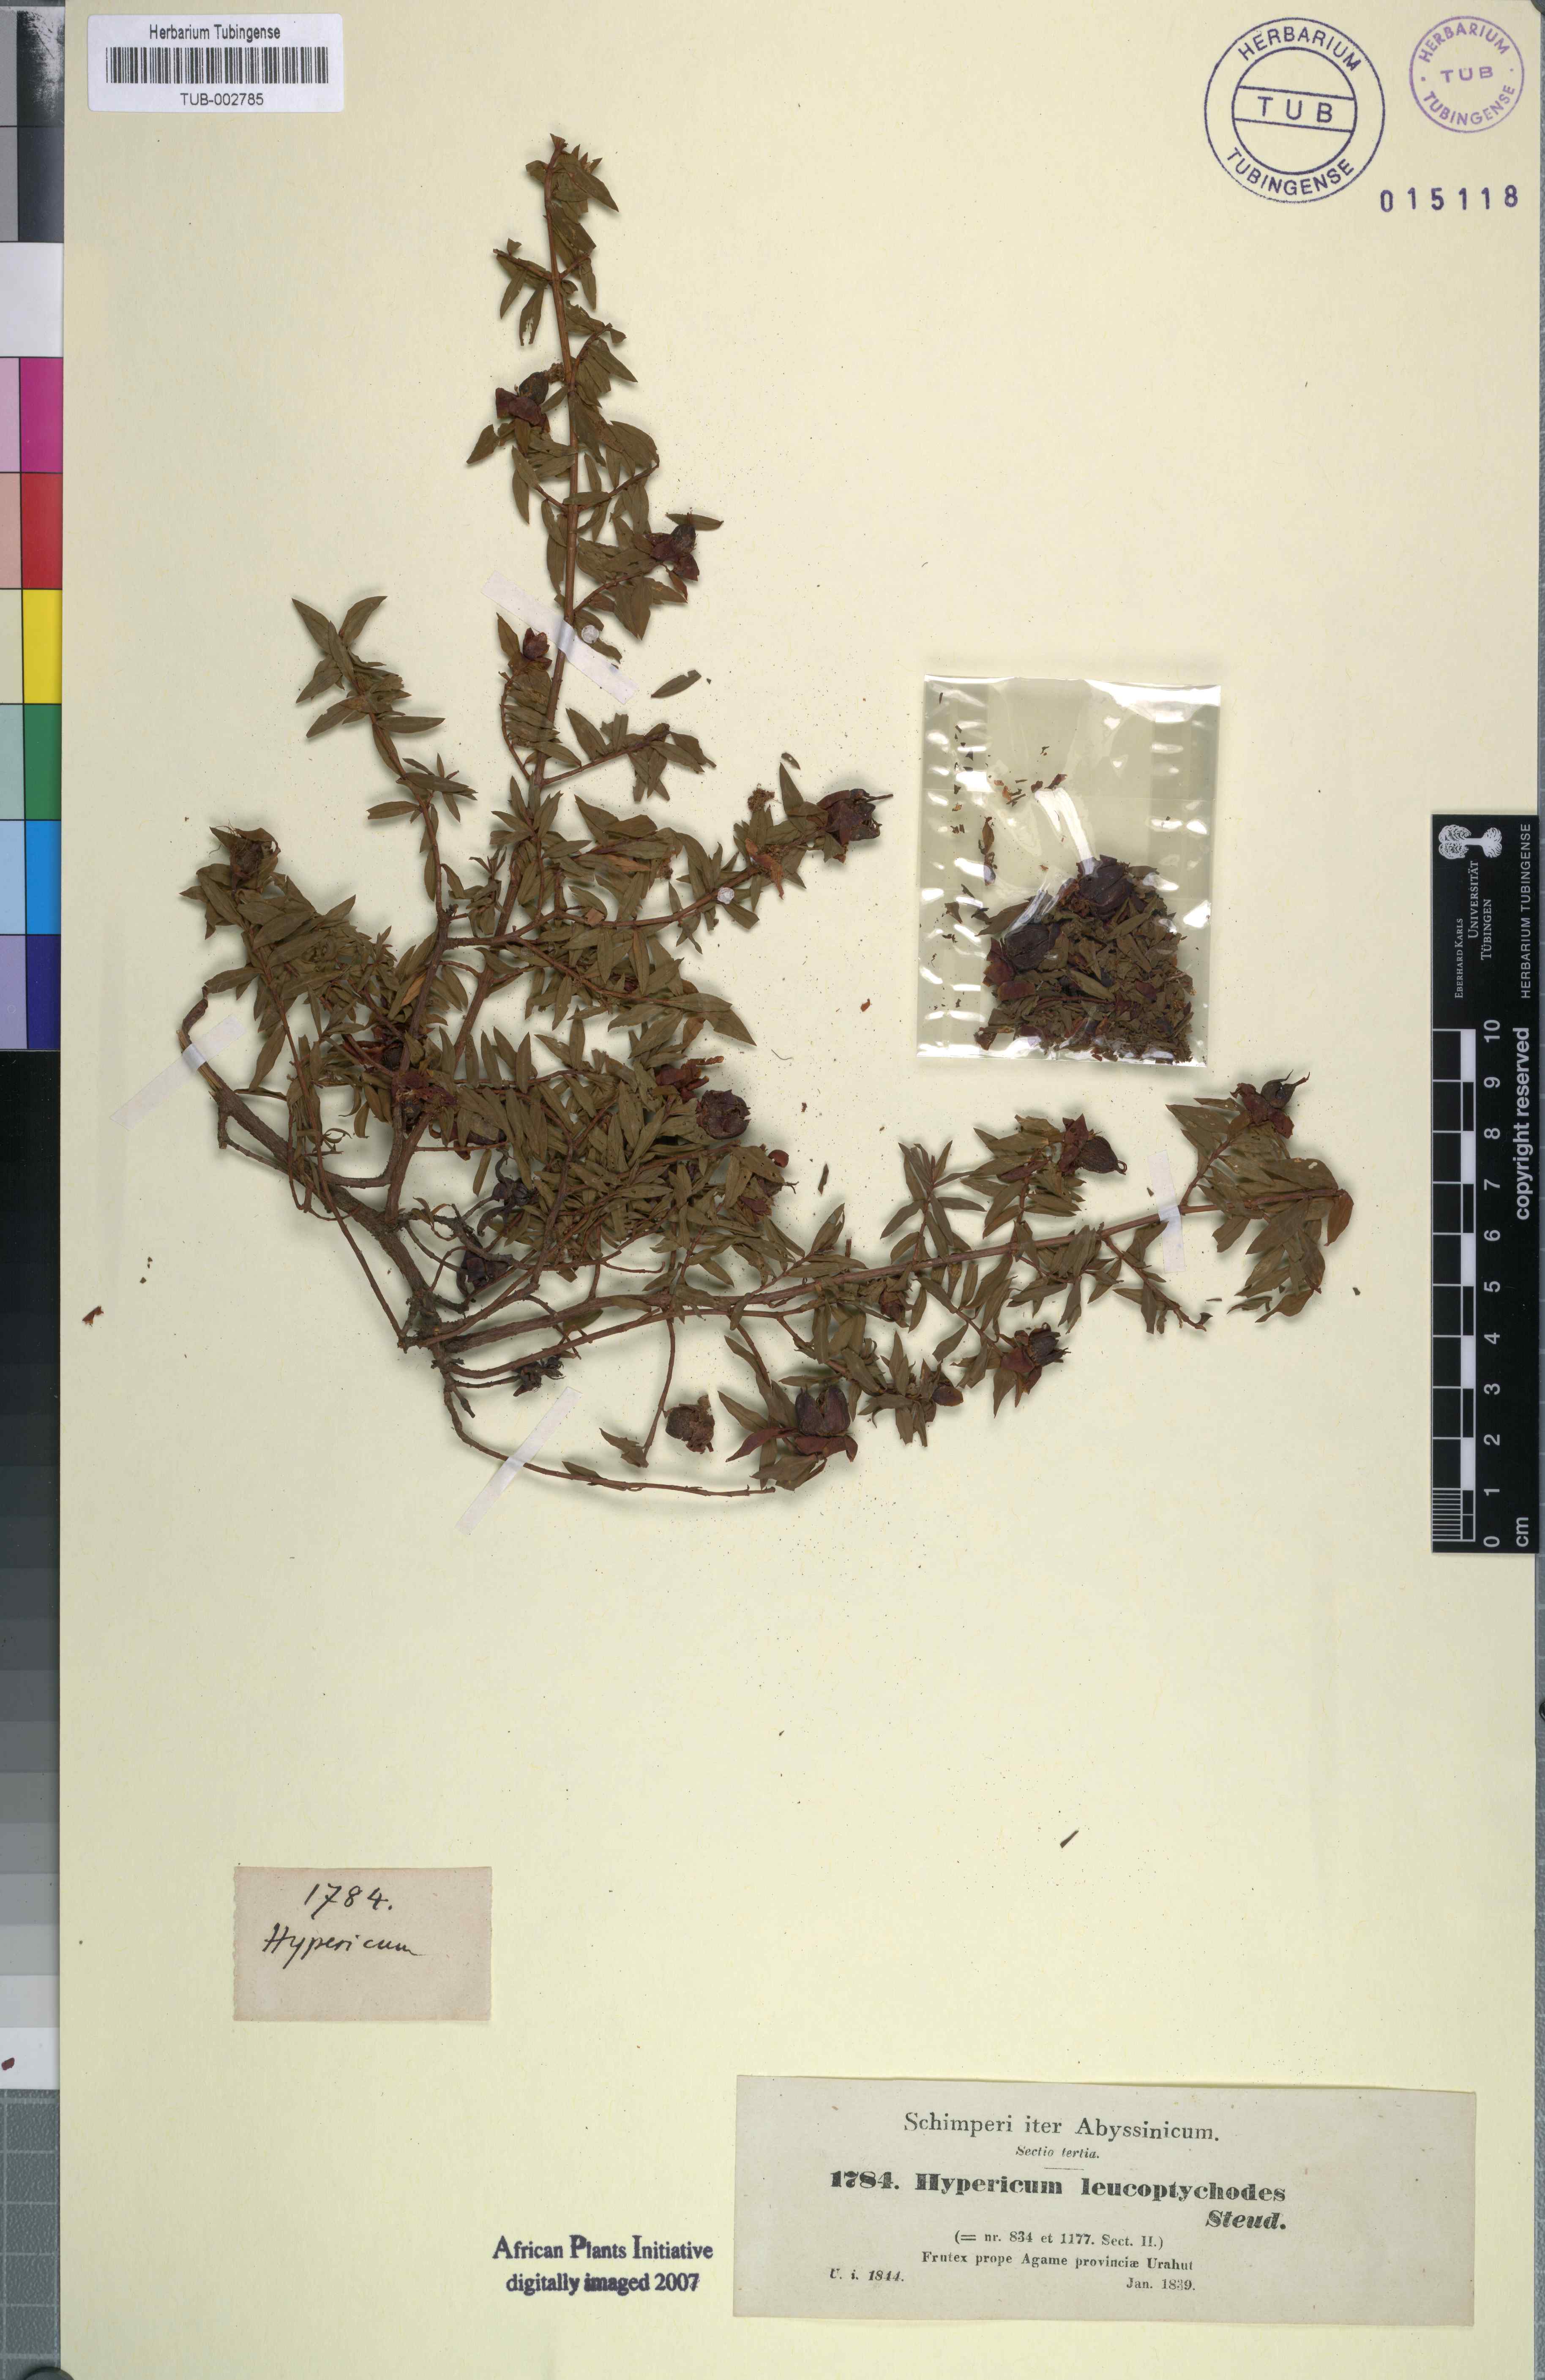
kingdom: Plantae
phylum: Tracheophyta
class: Magnoliopsida
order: Malpighiales
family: Hypericaceae
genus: Hypericum
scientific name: Hypericum lanceolatum
